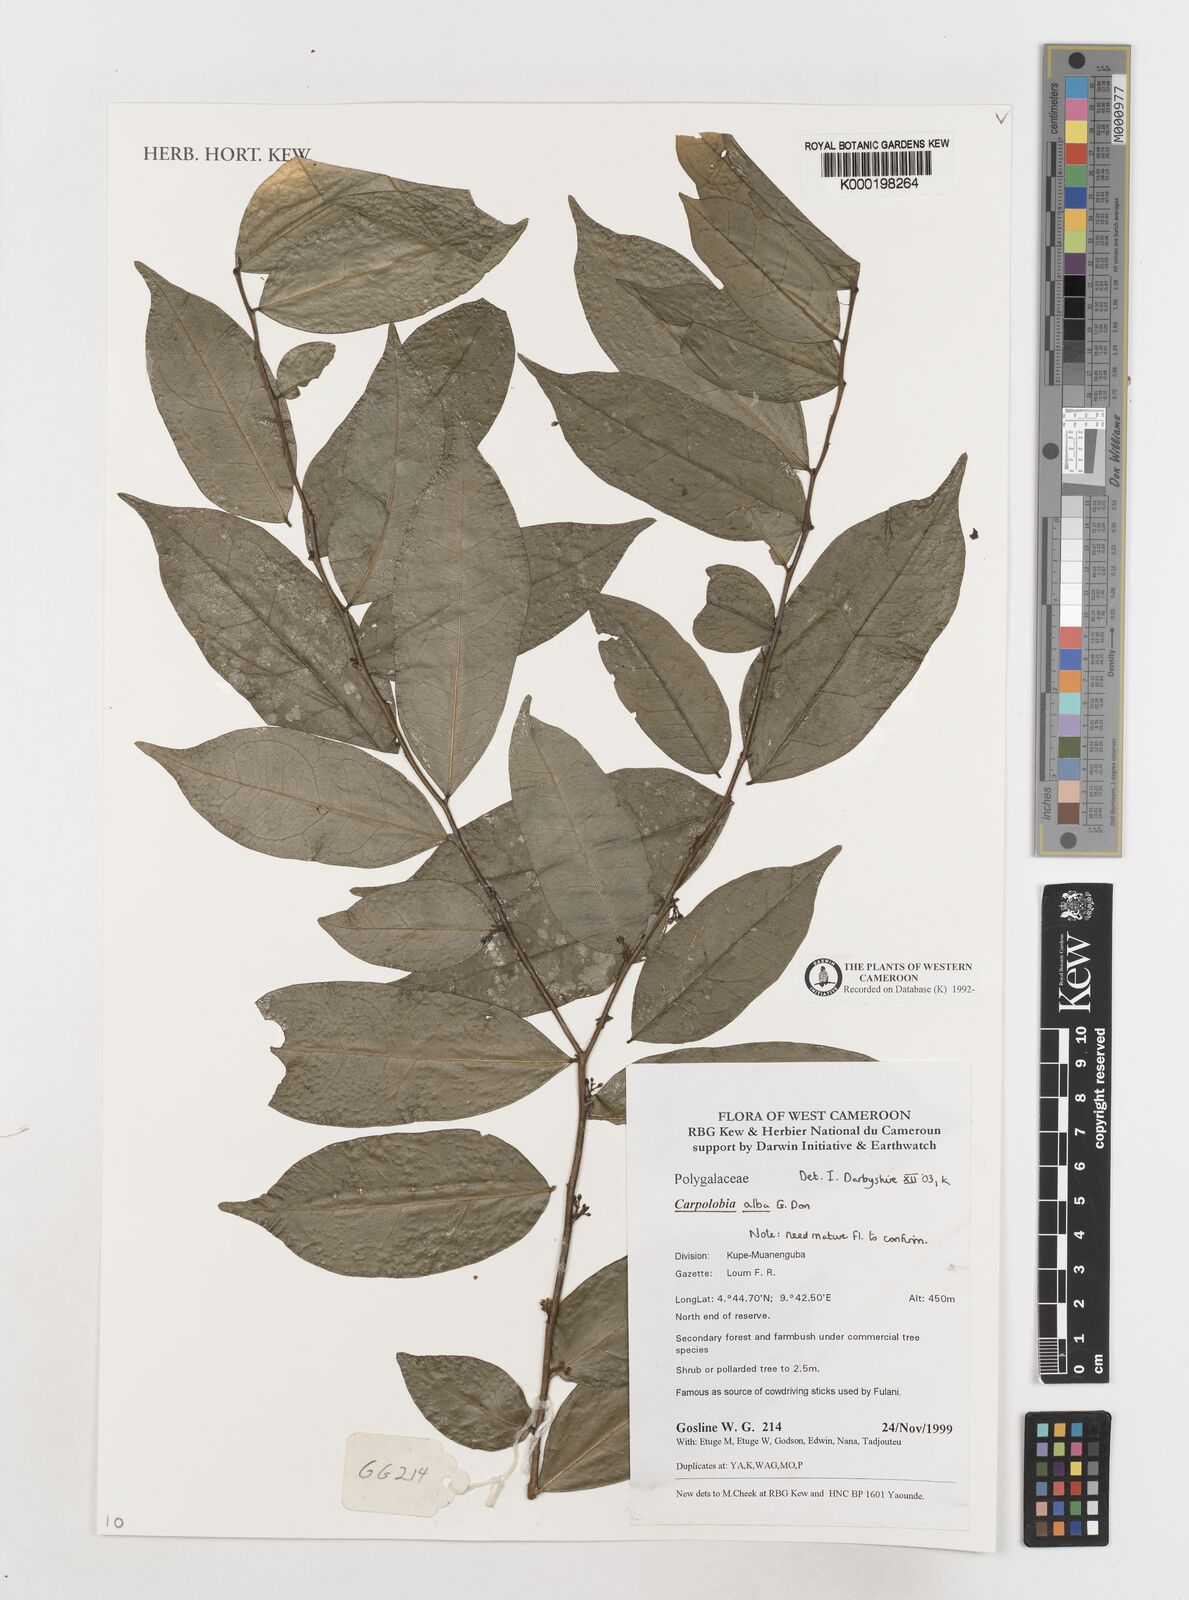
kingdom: Plantae
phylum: Tracheophyta
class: Magnoliopsida
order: Fabales
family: Polygalaceae
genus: Carpolobia
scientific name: Carpolobia alba
